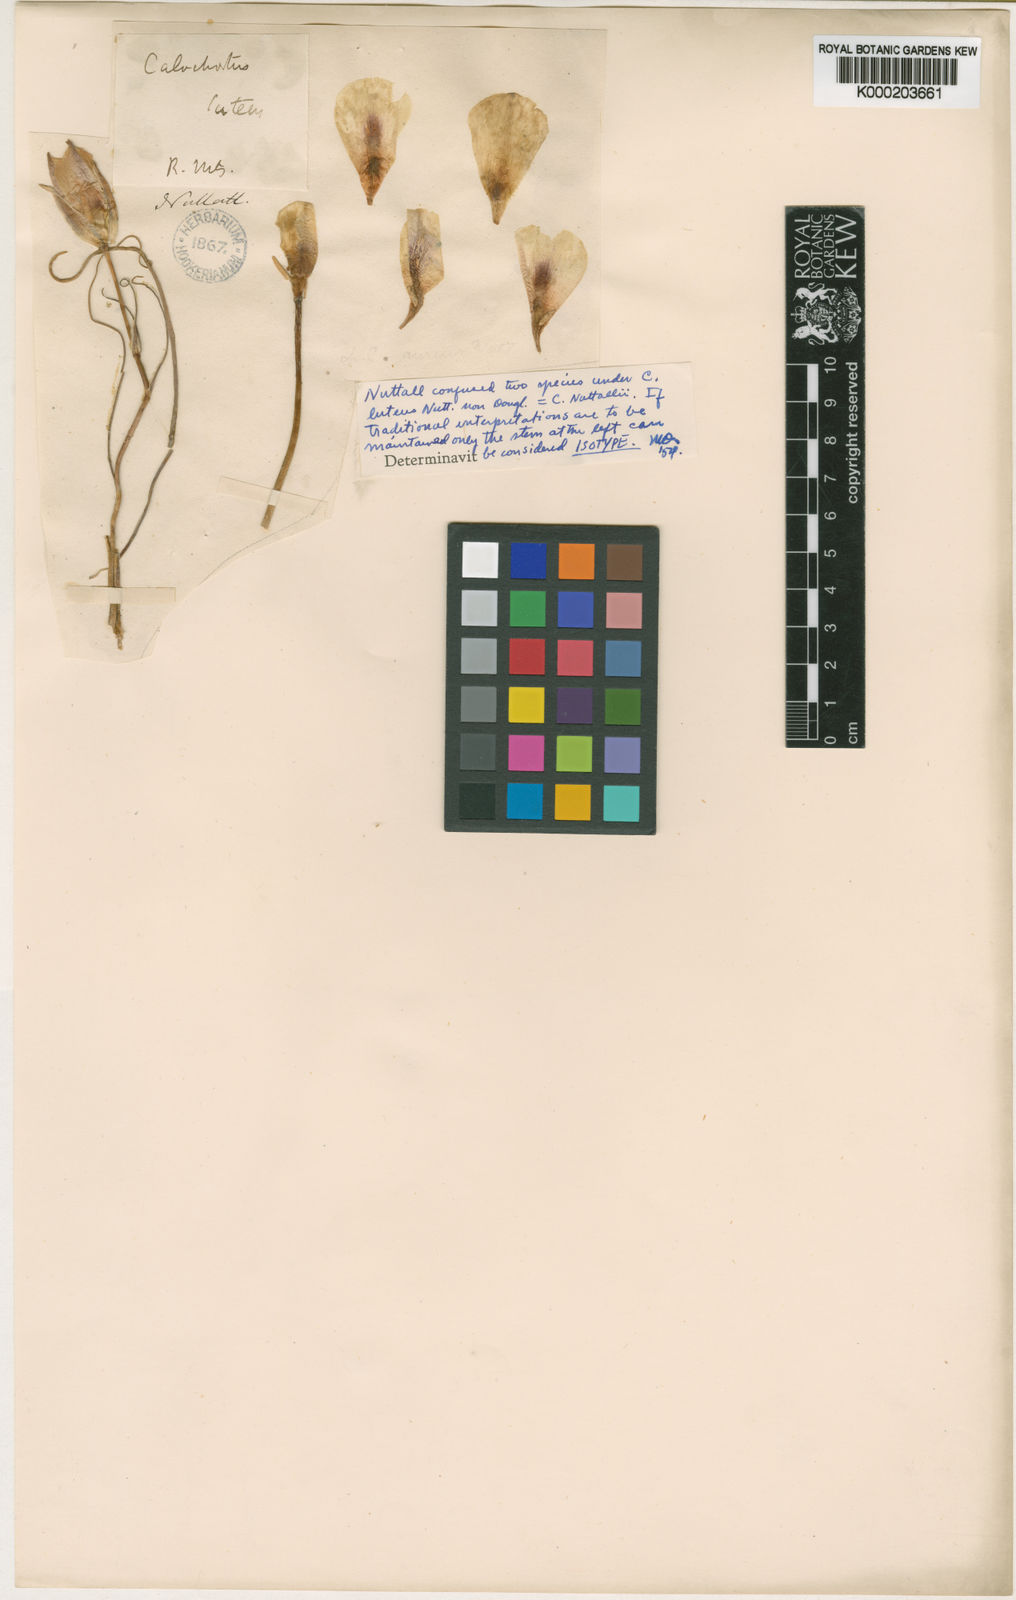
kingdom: Plantae
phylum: Tracheophyta
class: Liliopsida
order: Liliales
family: Liliaceae
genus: Calochortus
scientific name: Calochortus nuttallii
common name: Sego-lily
